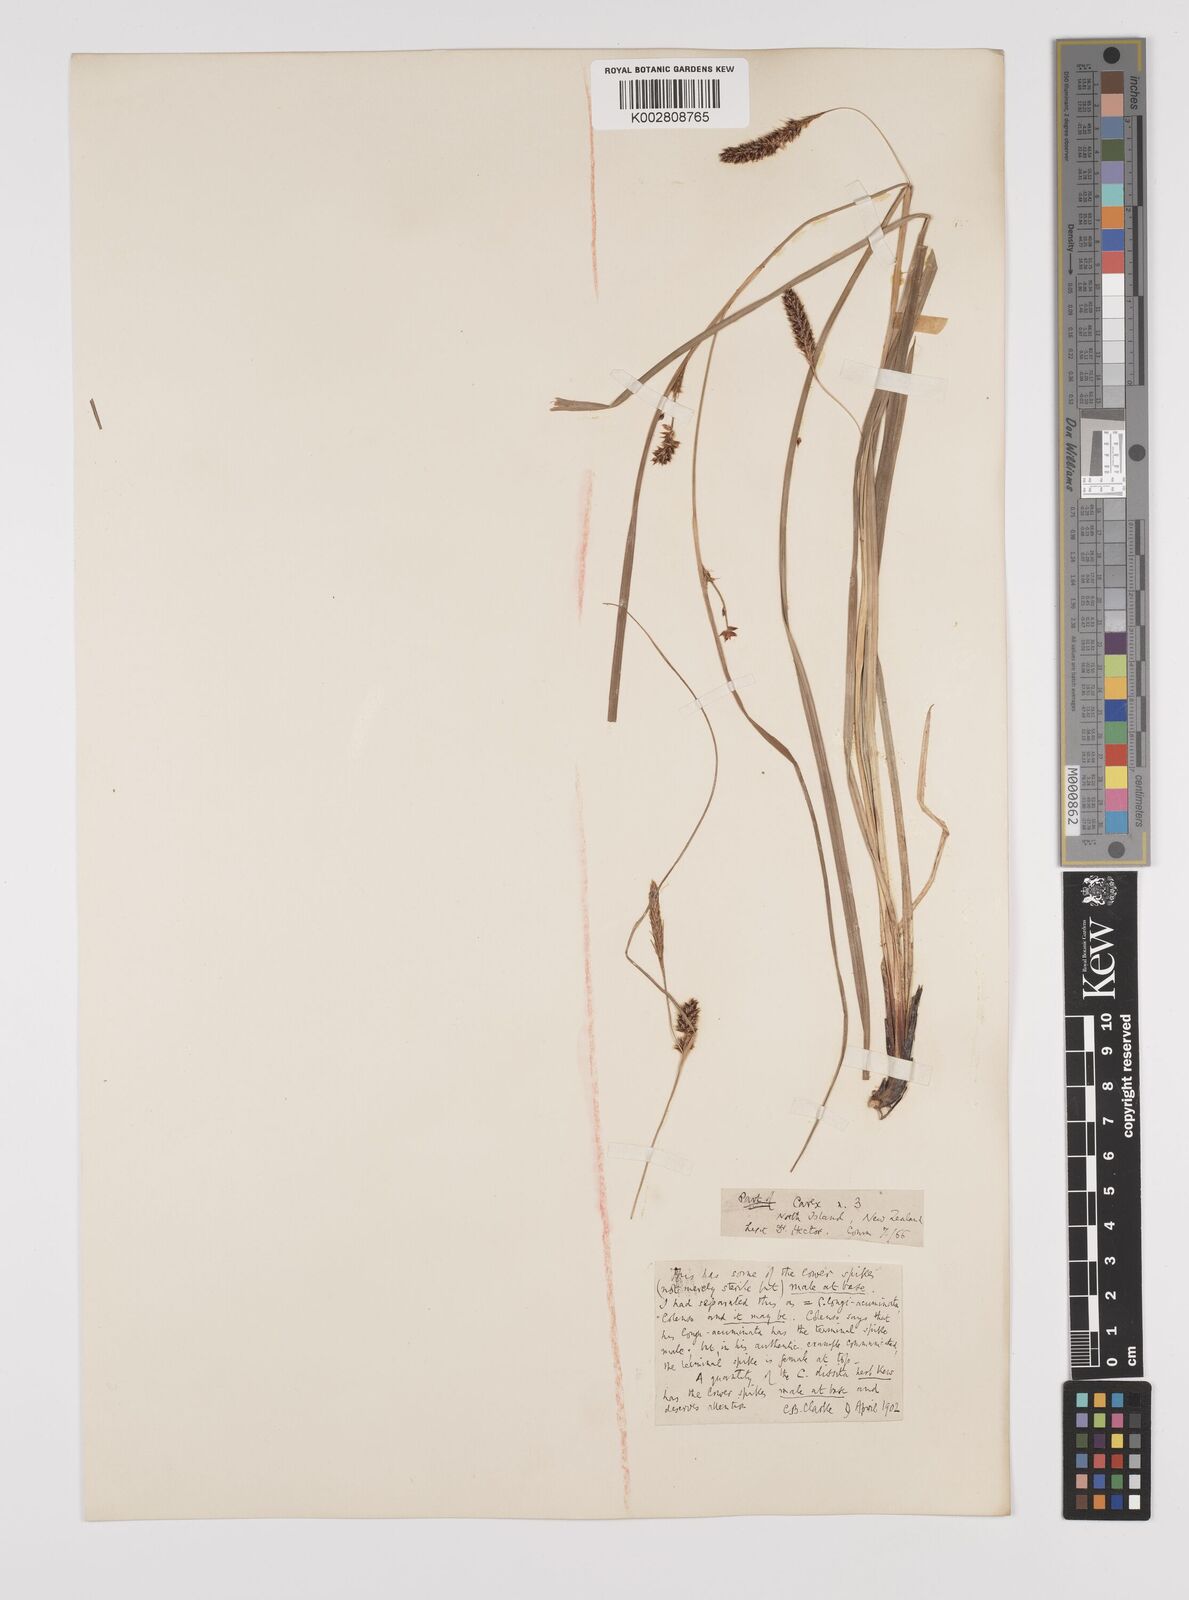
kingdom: Plantae
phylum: Tracheophyta
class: Liliopsida
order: Poales
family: Cyperaceae
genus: Carex
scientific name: Carex dissita
